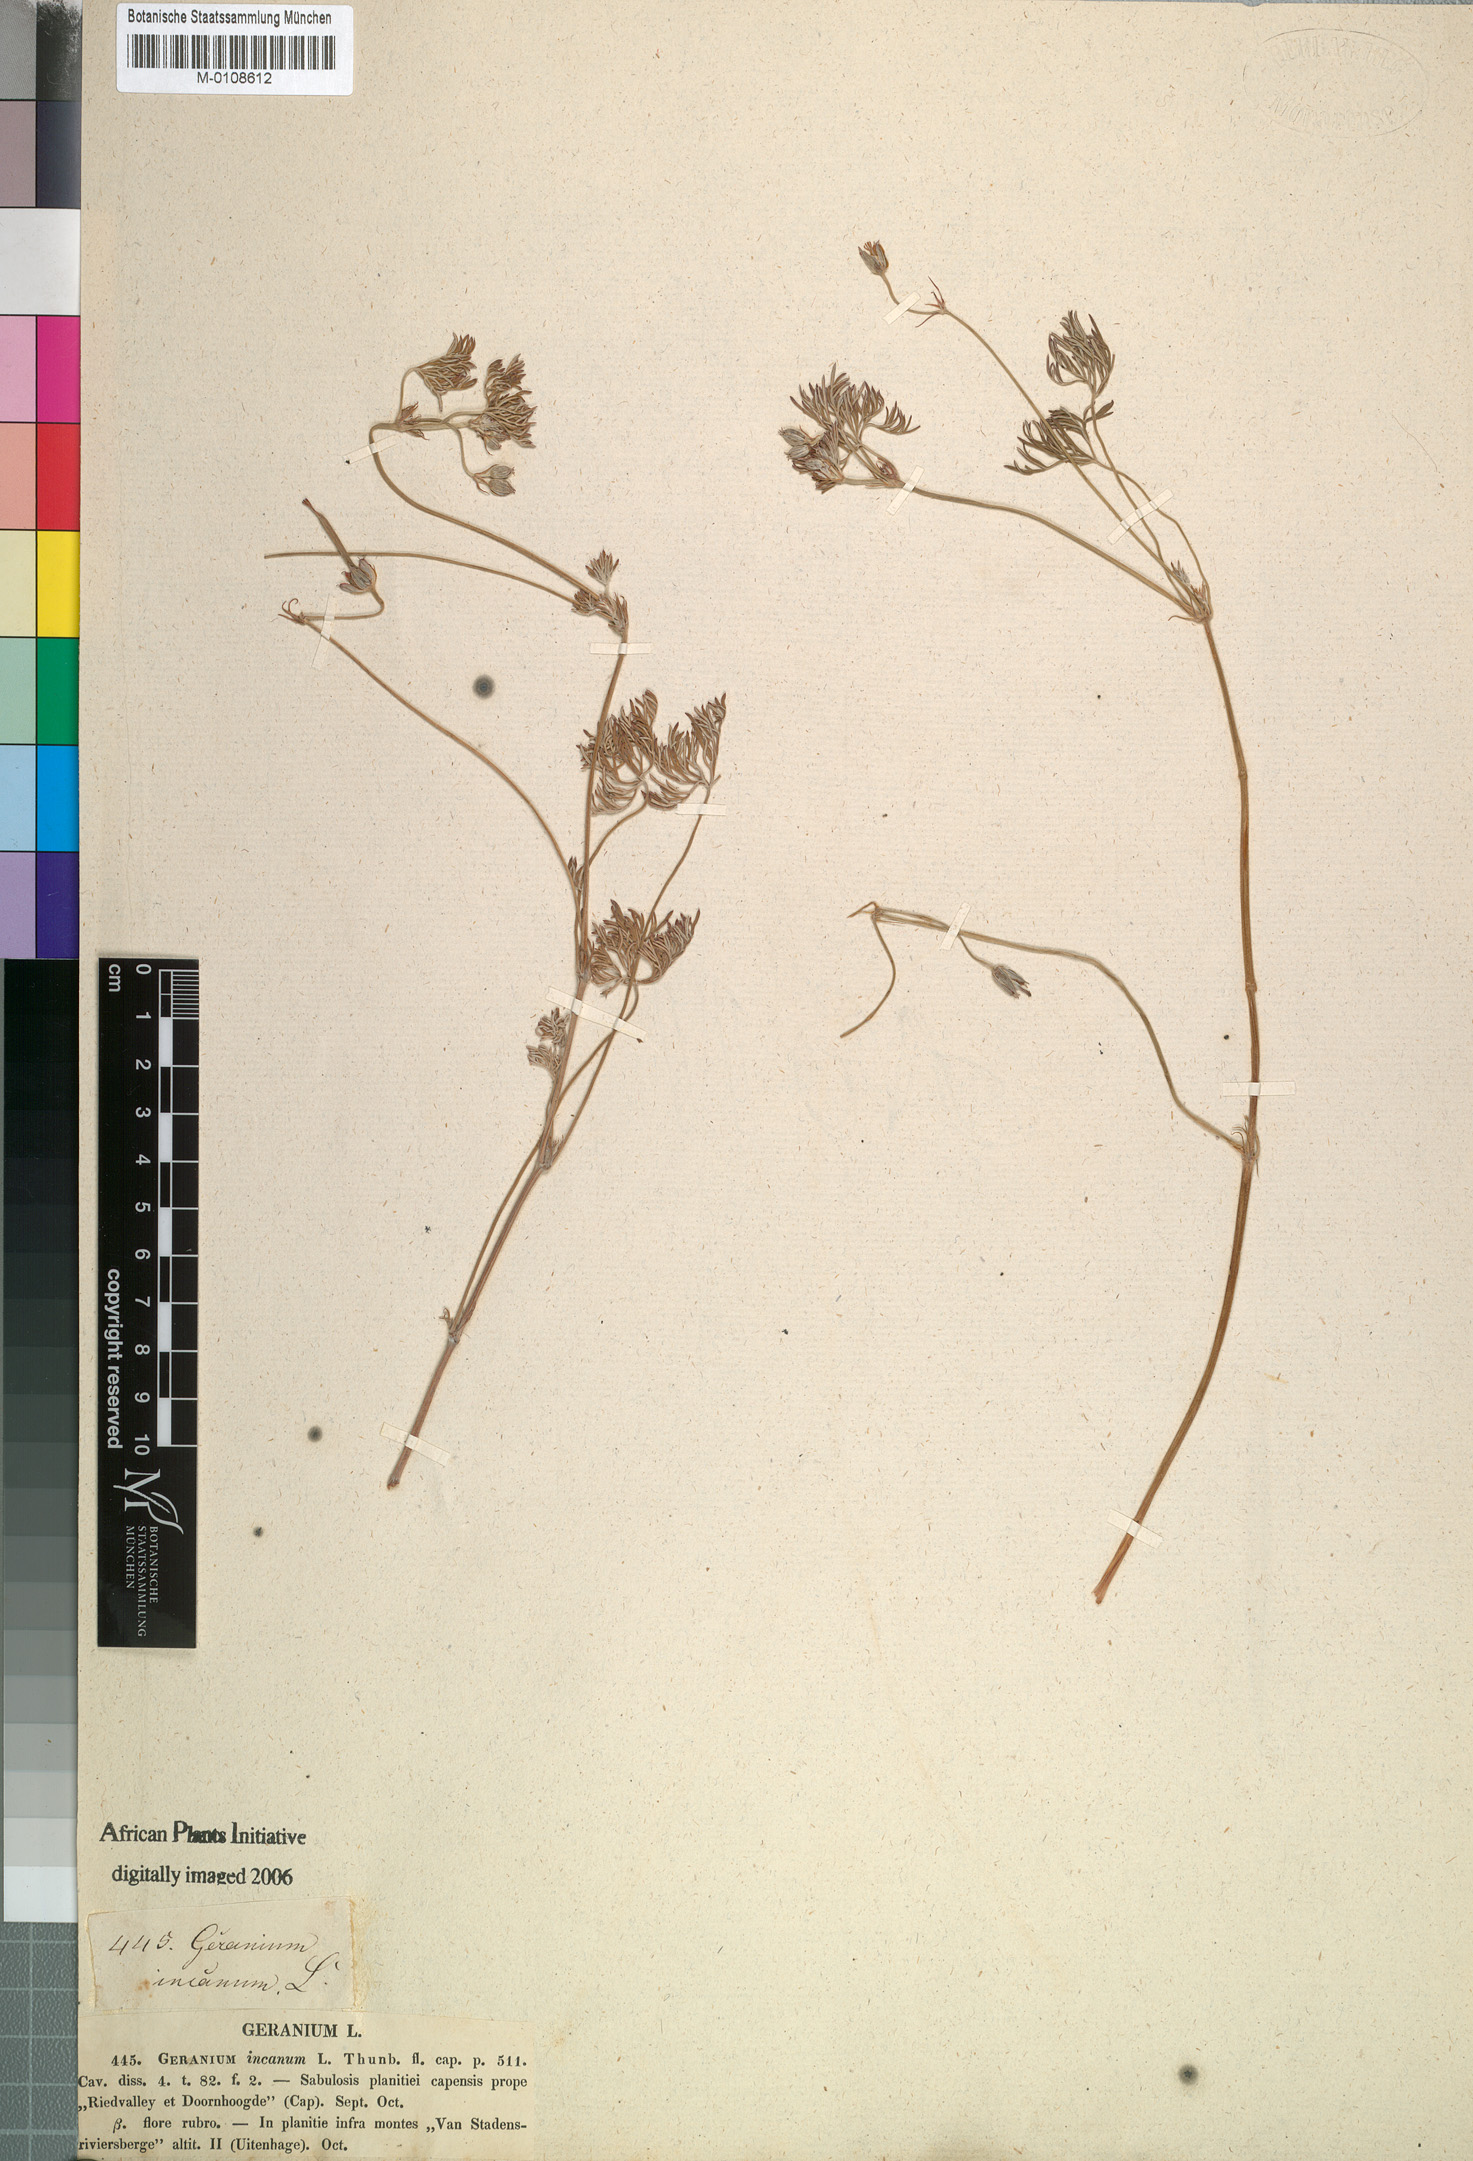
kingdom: Plantae
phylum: Tracheophyta
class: Magnoliopsida
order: Geraniales
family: Geraniaceae
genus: Geranium
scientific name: Geranium incanum
